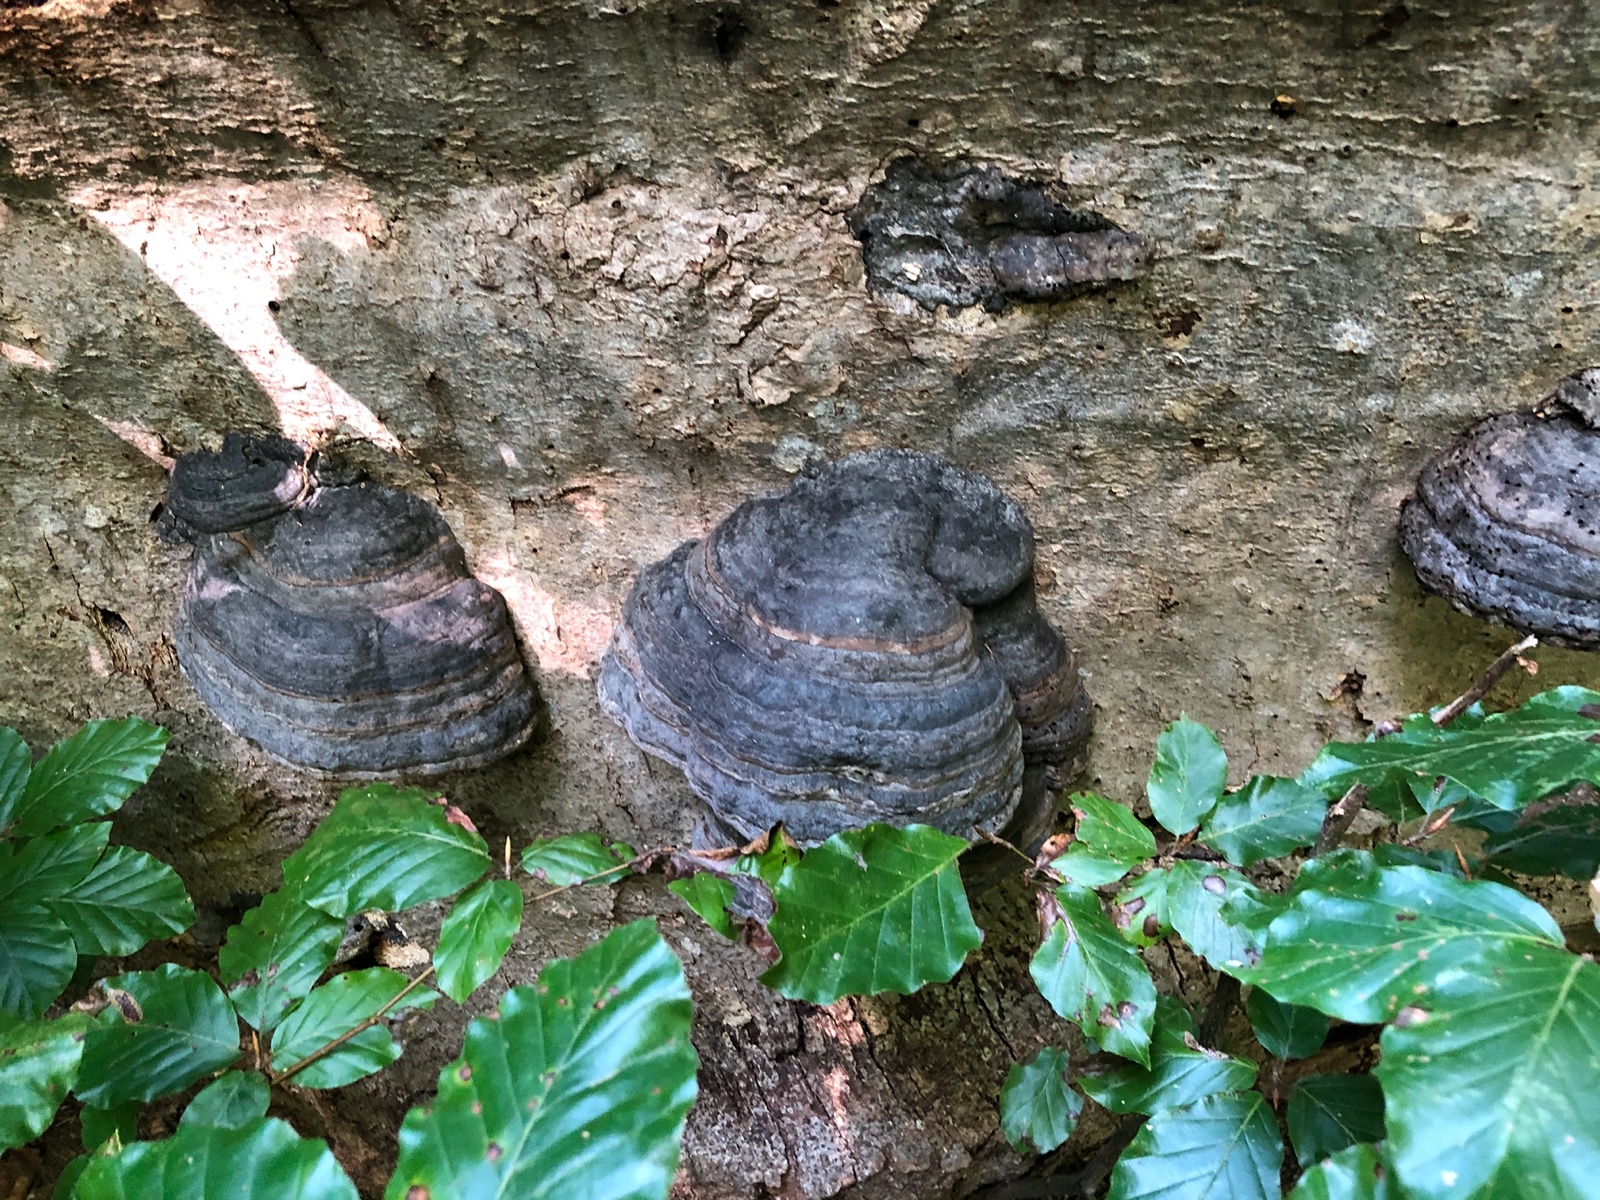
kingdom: Fungi
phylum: Basidiomycota
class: Agaricomycetes
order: Polyporales
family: Polyporaceae
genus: Fomes
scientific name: Fomes fomentarius
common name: tøndersvamp
